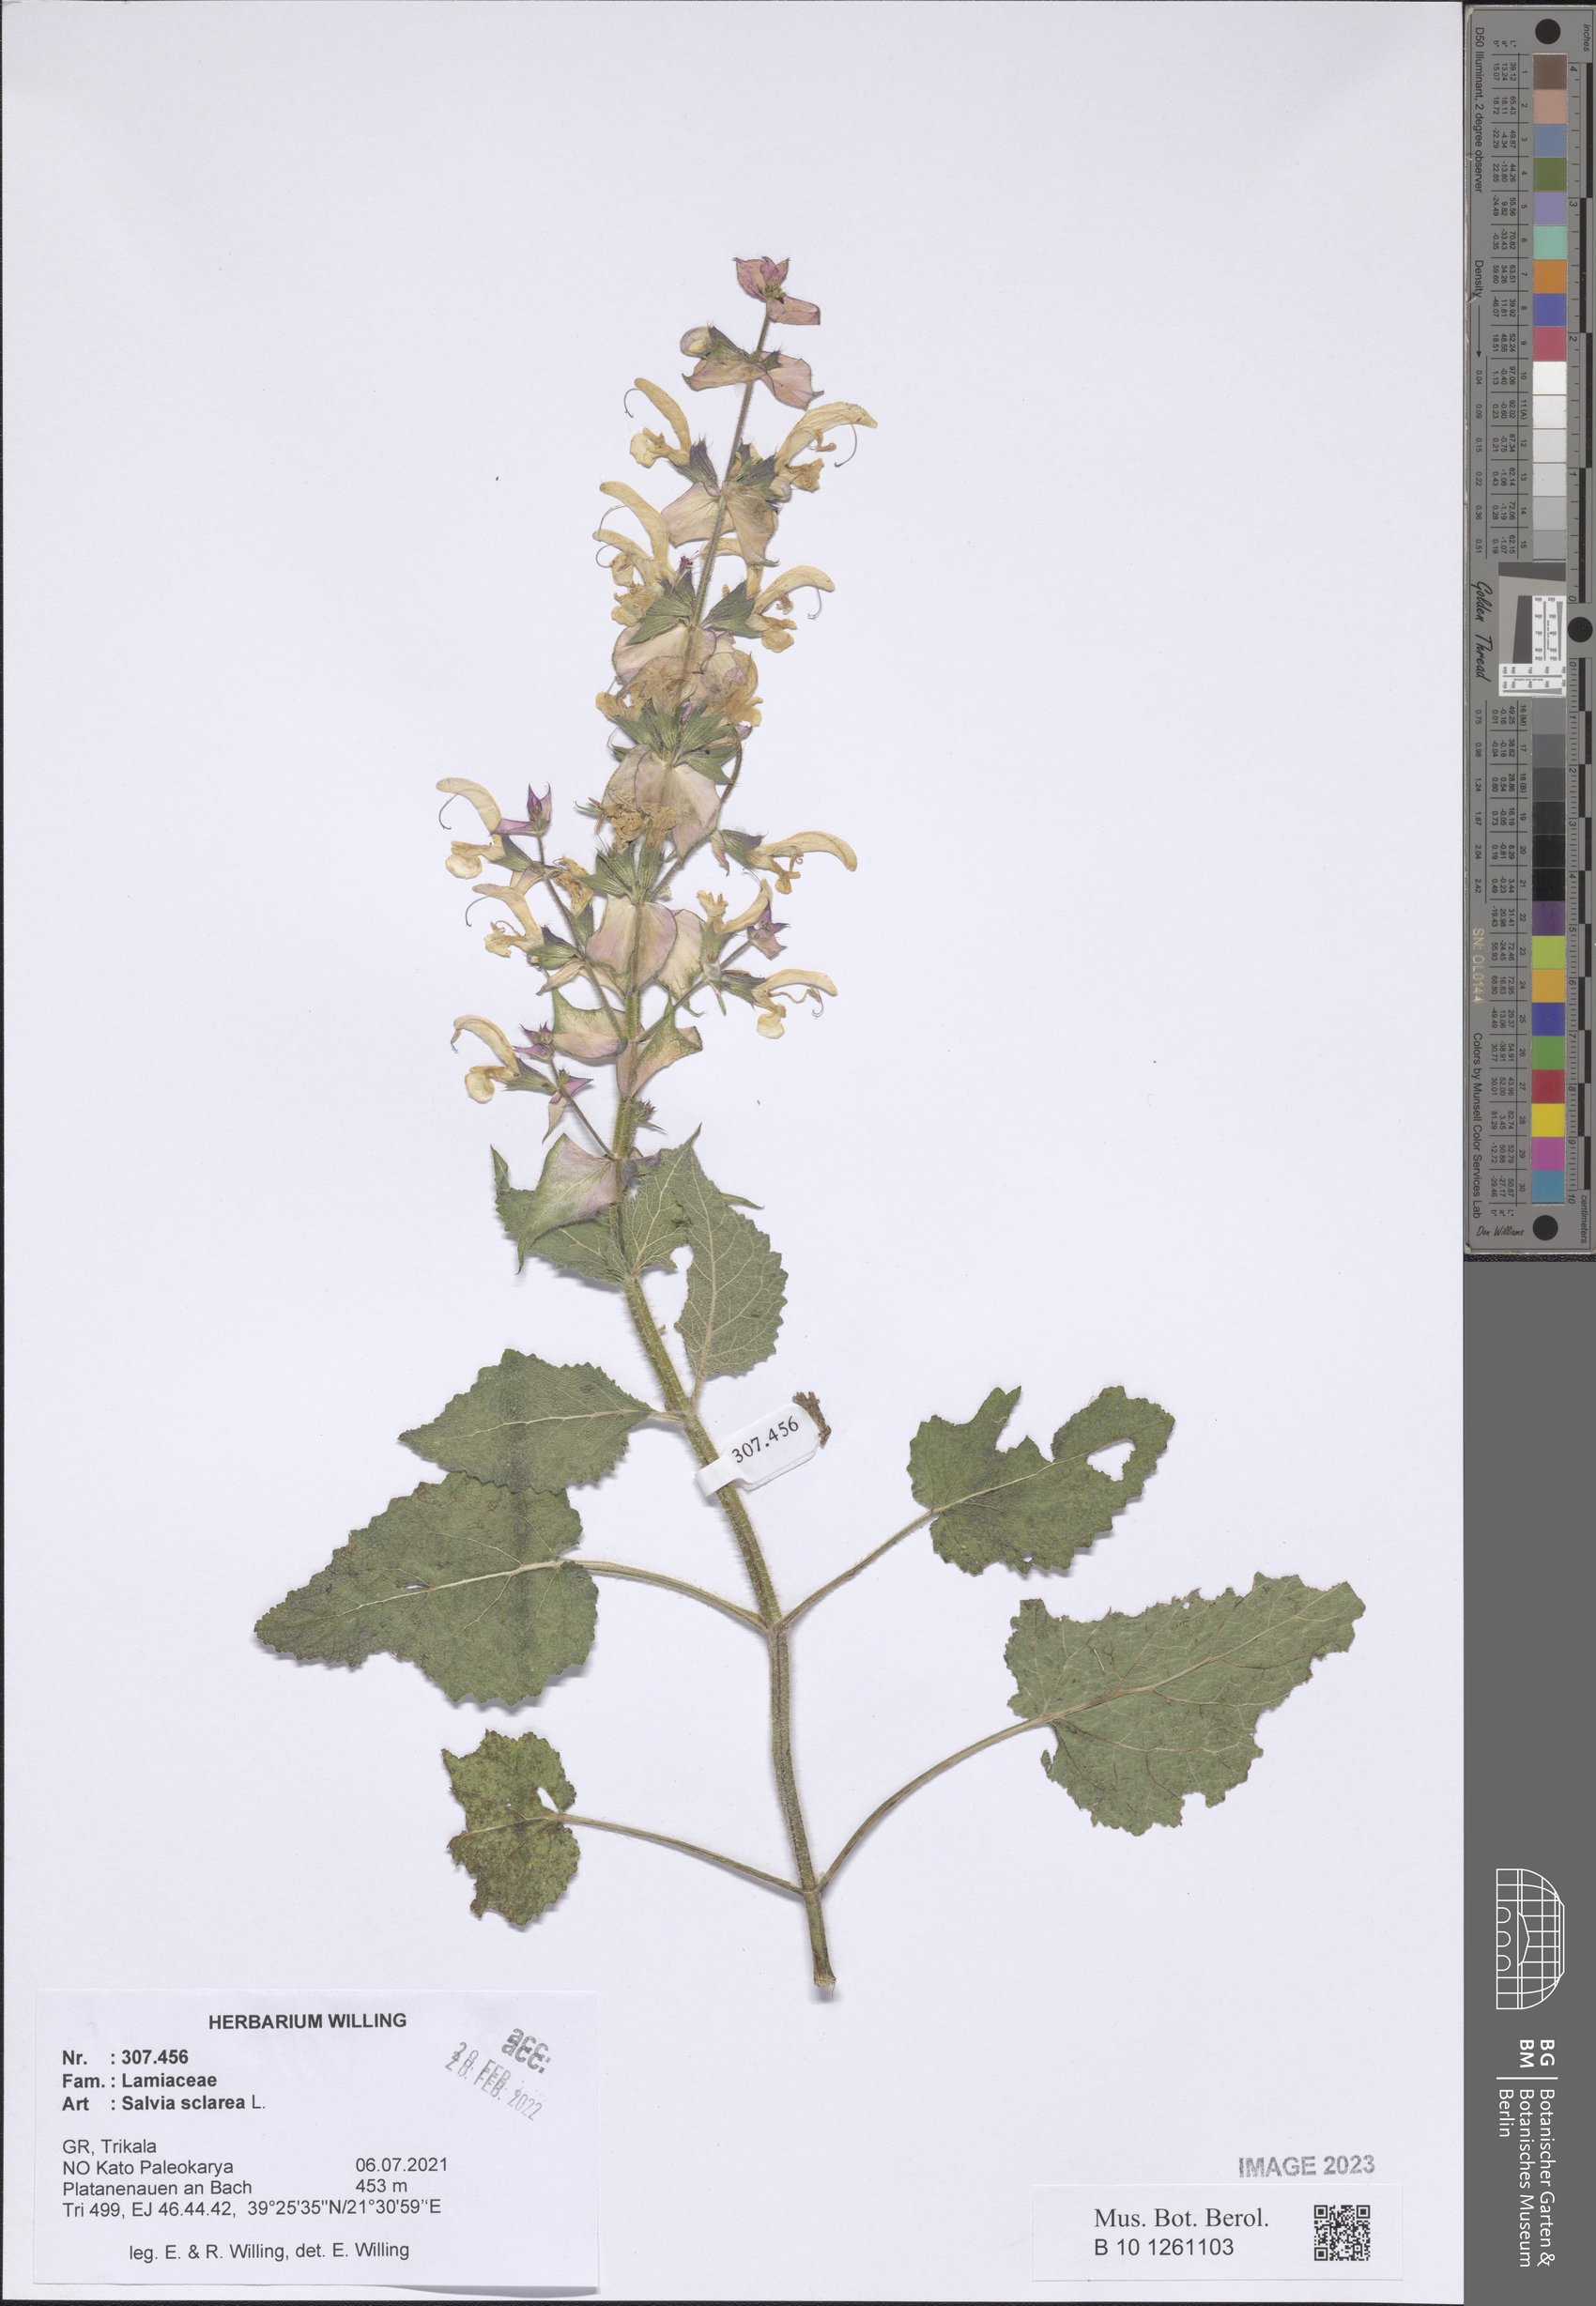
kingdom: Plantae
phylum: Tracheophyta
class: Magnoliopsida
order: Lamiales
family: Lamiaceae
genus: Salvia
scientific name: Salvia sclarea
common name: Clary
